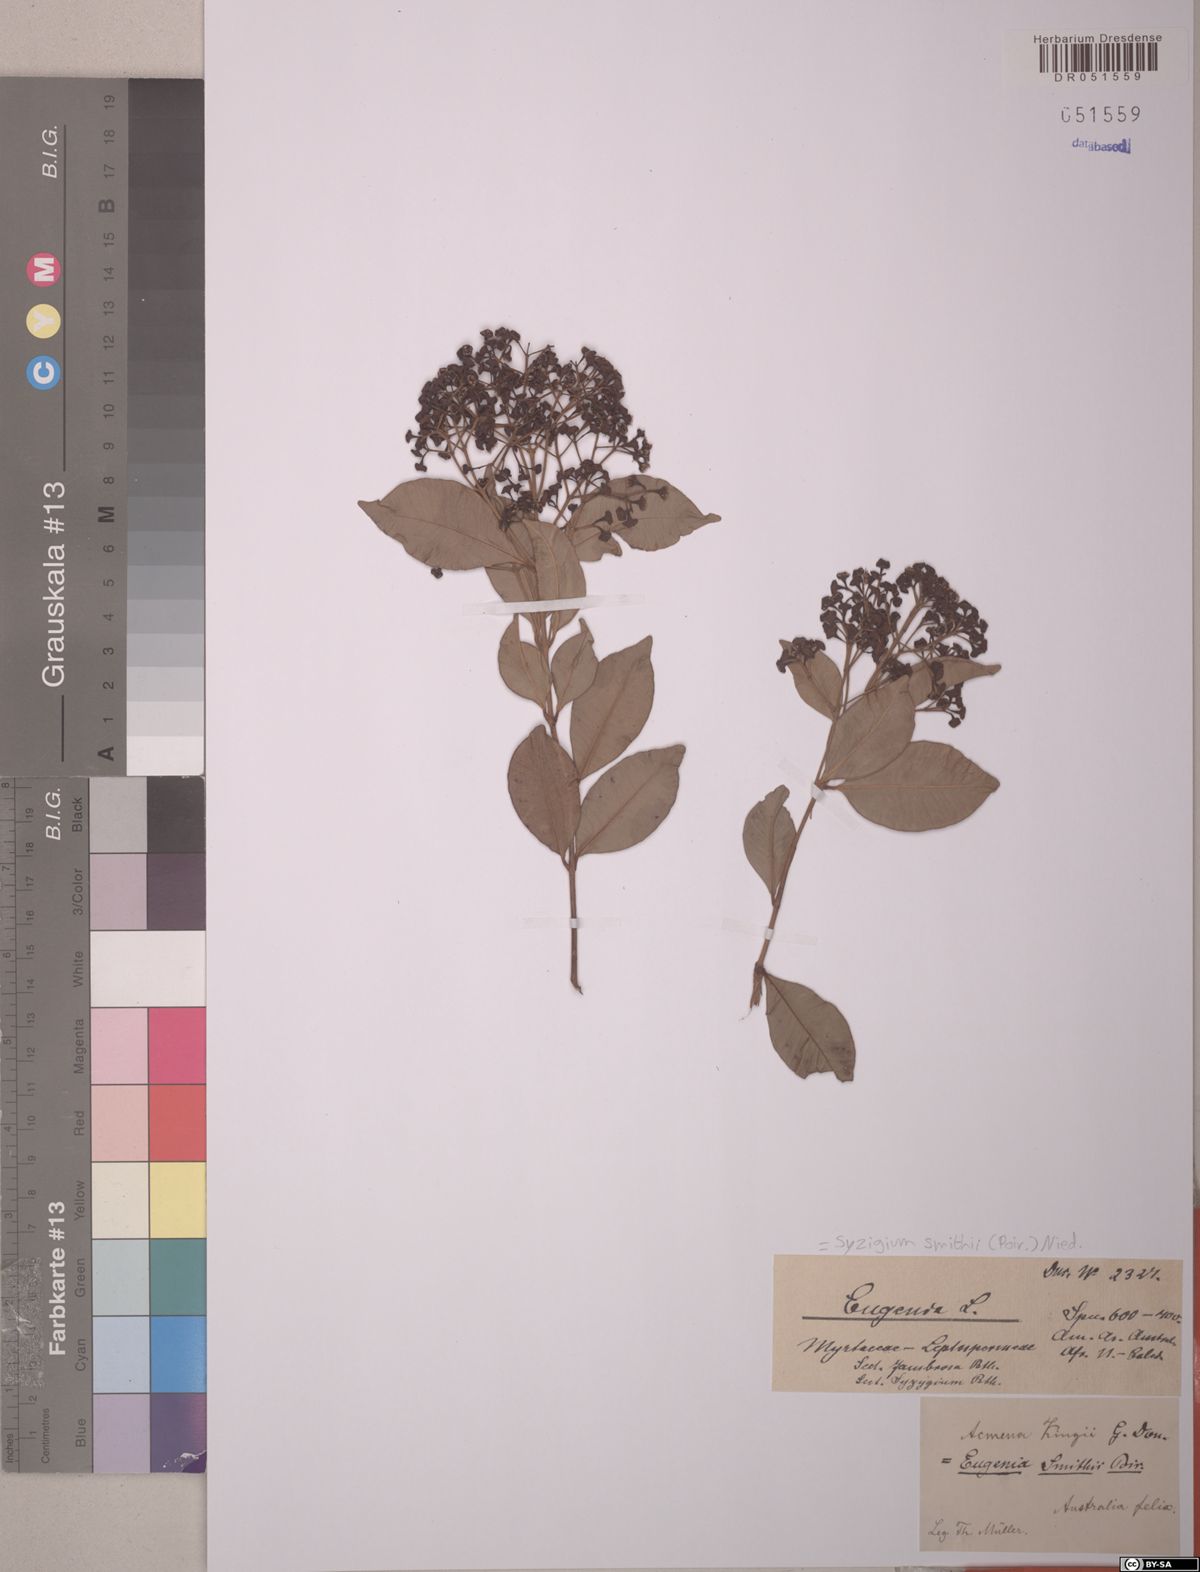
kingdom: Plantae
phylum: Tracheophyta
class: Magnoliopsida
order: Myrtales
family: Myrtaceae
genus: Syzygium
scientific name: Syzygium smithii
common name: Lilly-pilly
